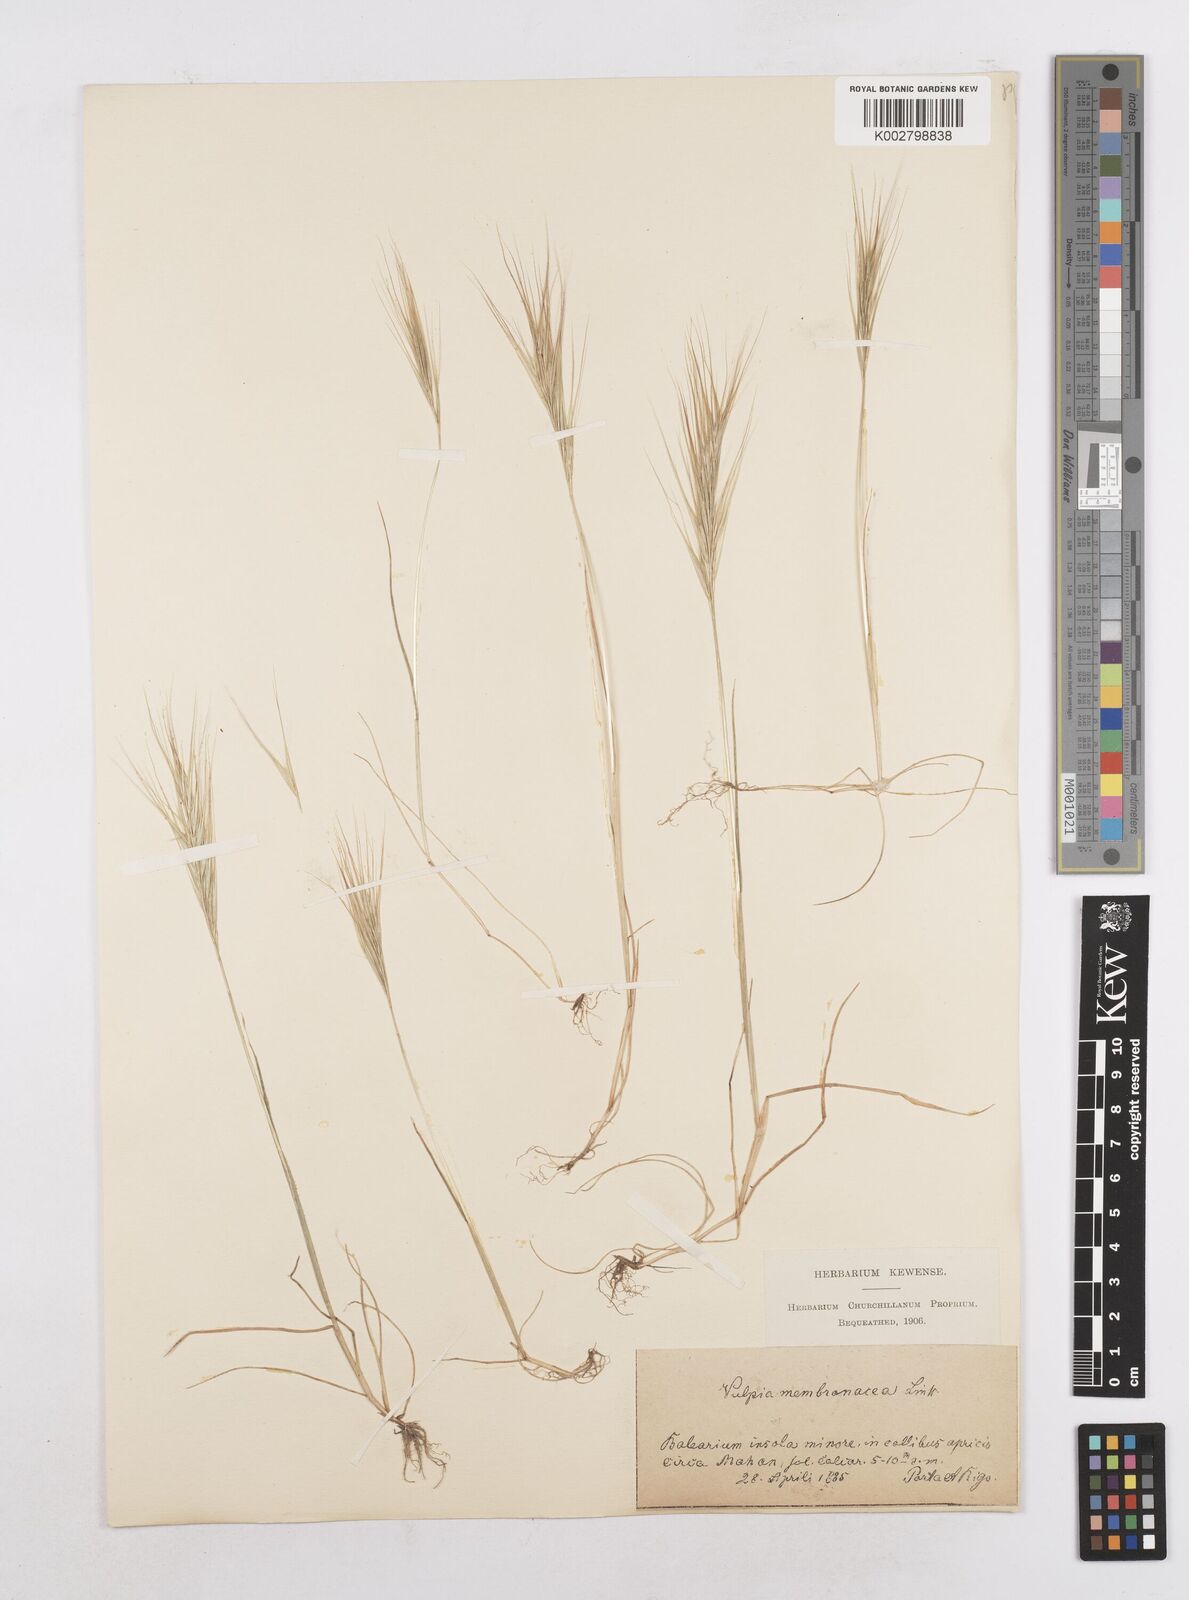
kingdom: Plantae
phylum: Tracheophyta
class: Liliopsida
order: Poales
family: Poaceae
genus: Festuca
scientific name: Festuca membranacea
